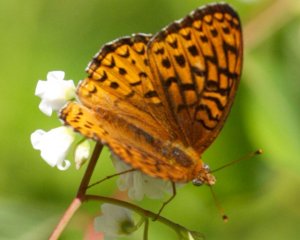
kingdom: Animalia
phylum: Arthropoda
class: Insecta
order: Lepidoptera
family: Nymphalidae
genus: Speyeria
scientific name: Speyeria atlantis
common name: Atlantis Fritillary
